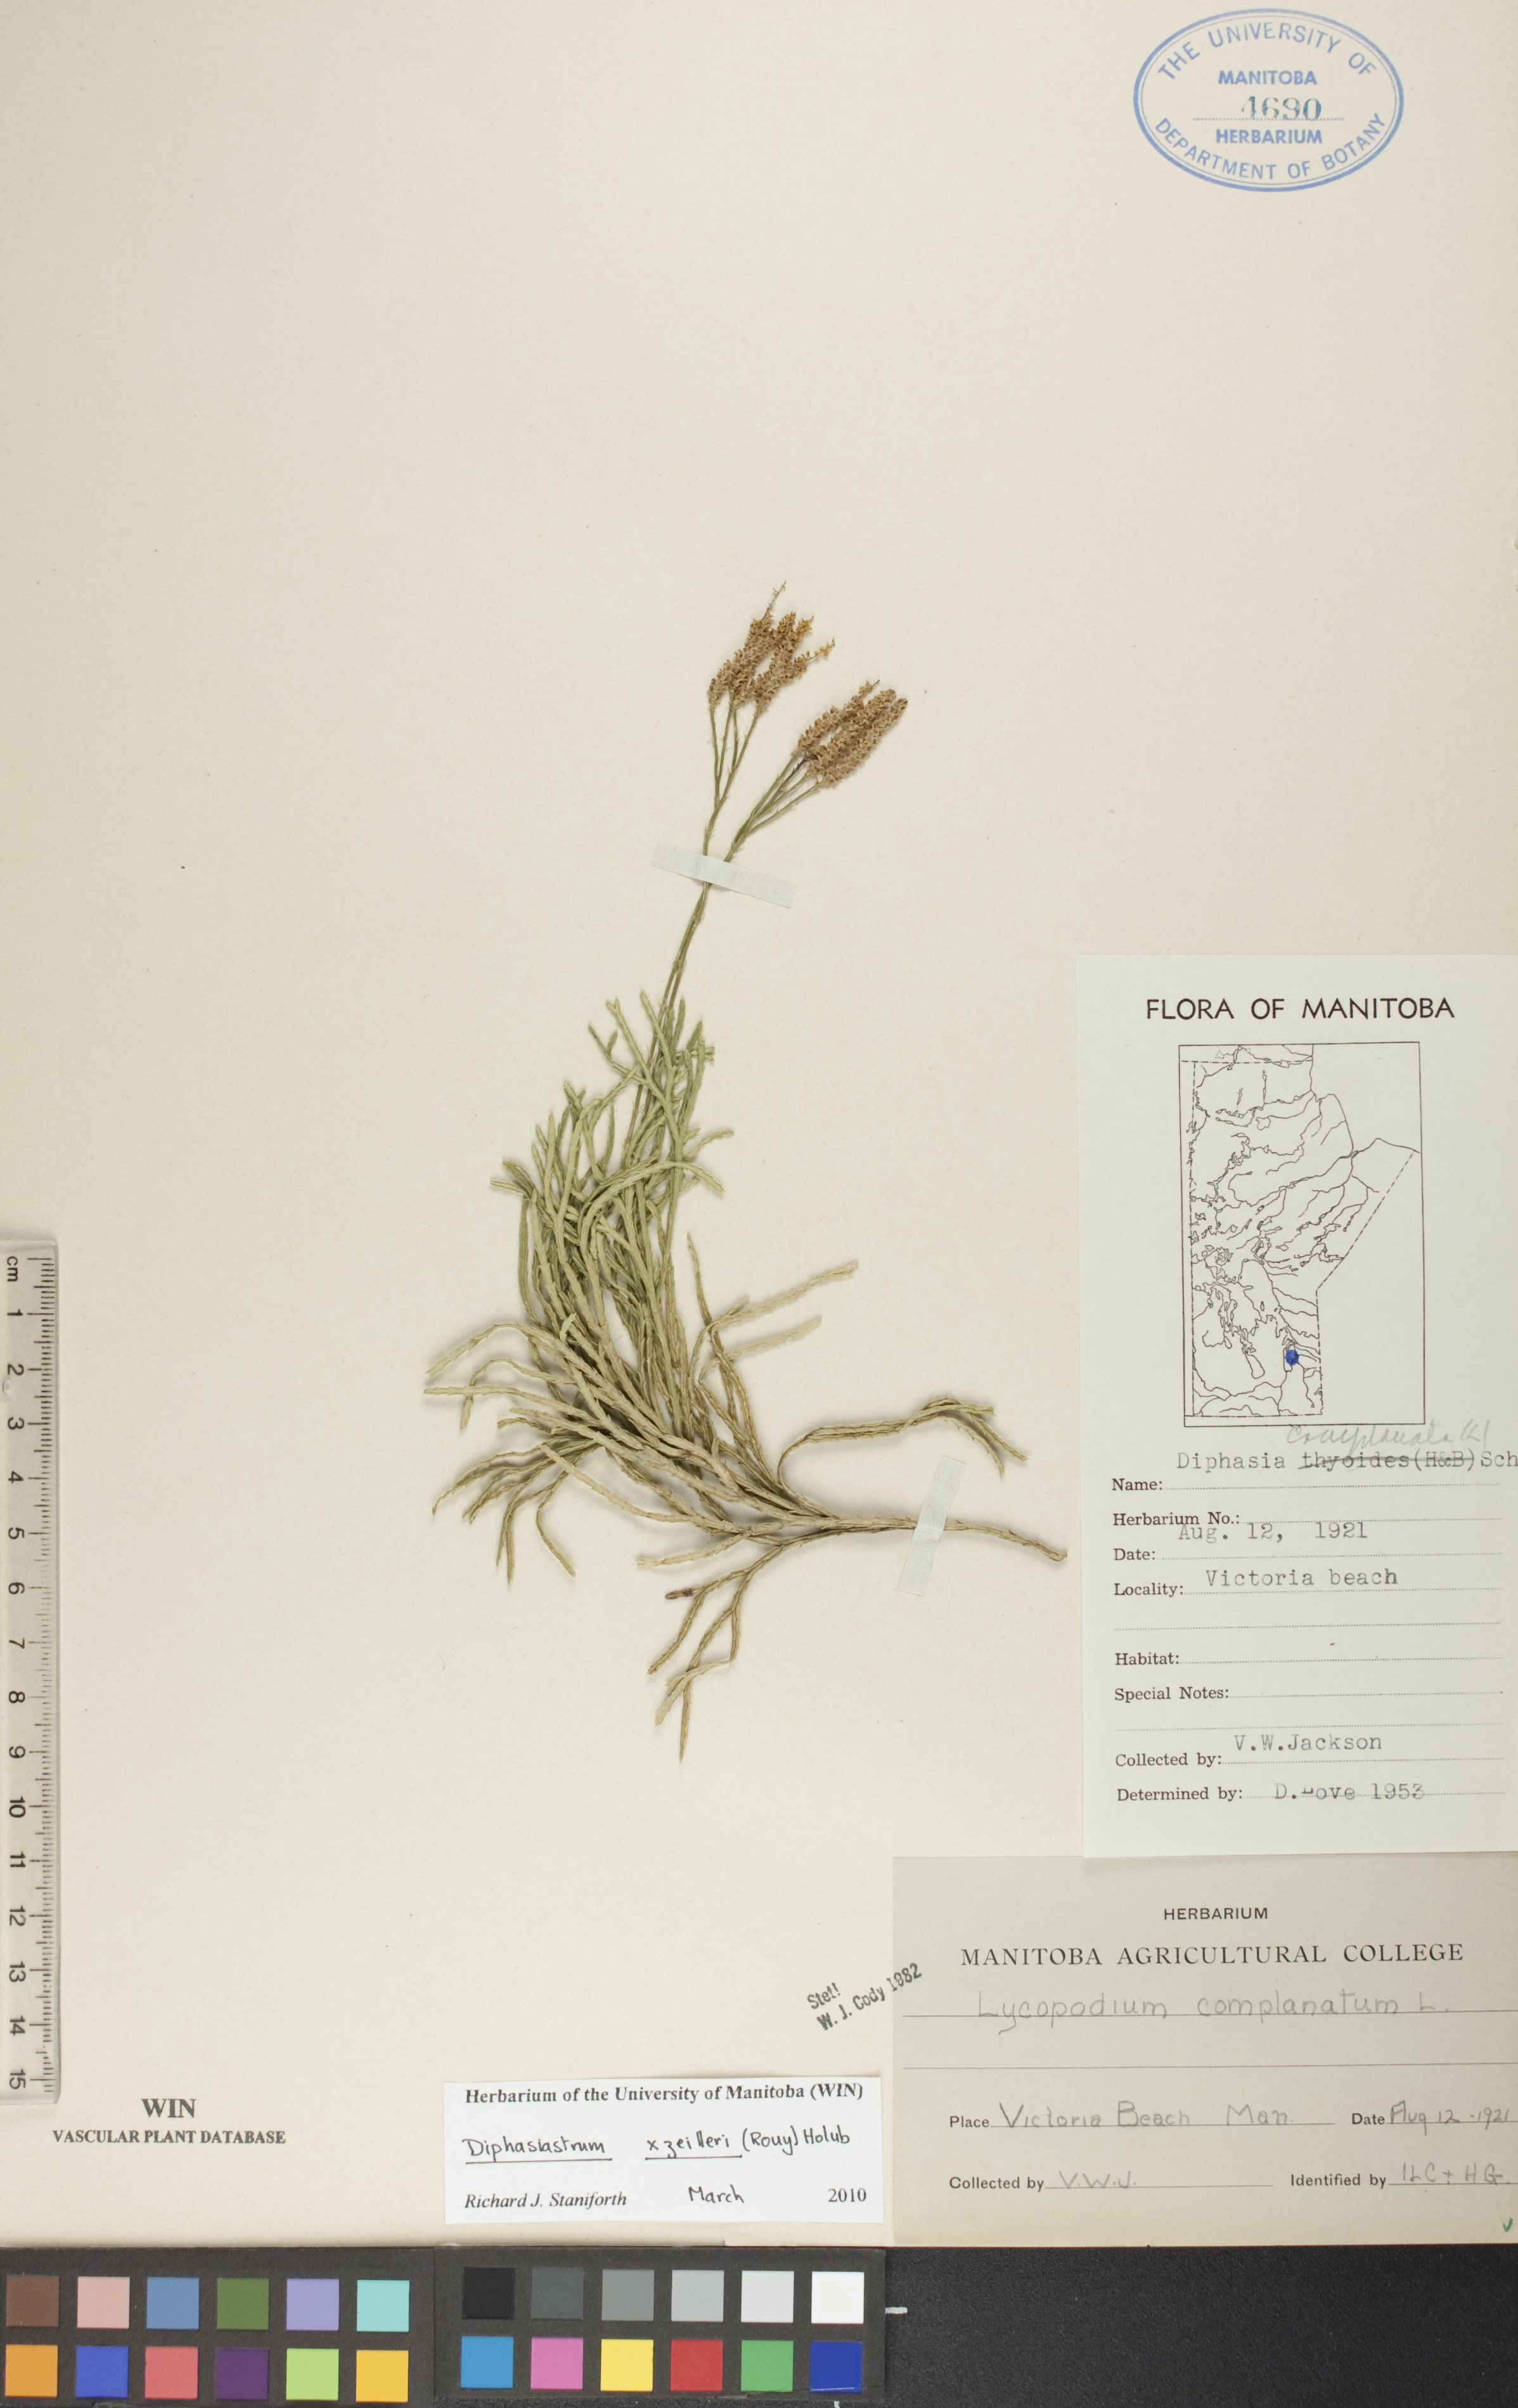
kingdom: Plantae
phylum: Tracheophyta
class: Lycopodiopsida
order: Lycopodiales
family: Lycopodiaceae
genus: Diphasiastrum
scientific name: Diphasiastrum zeilleri
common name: Zeiller's clubmoss
